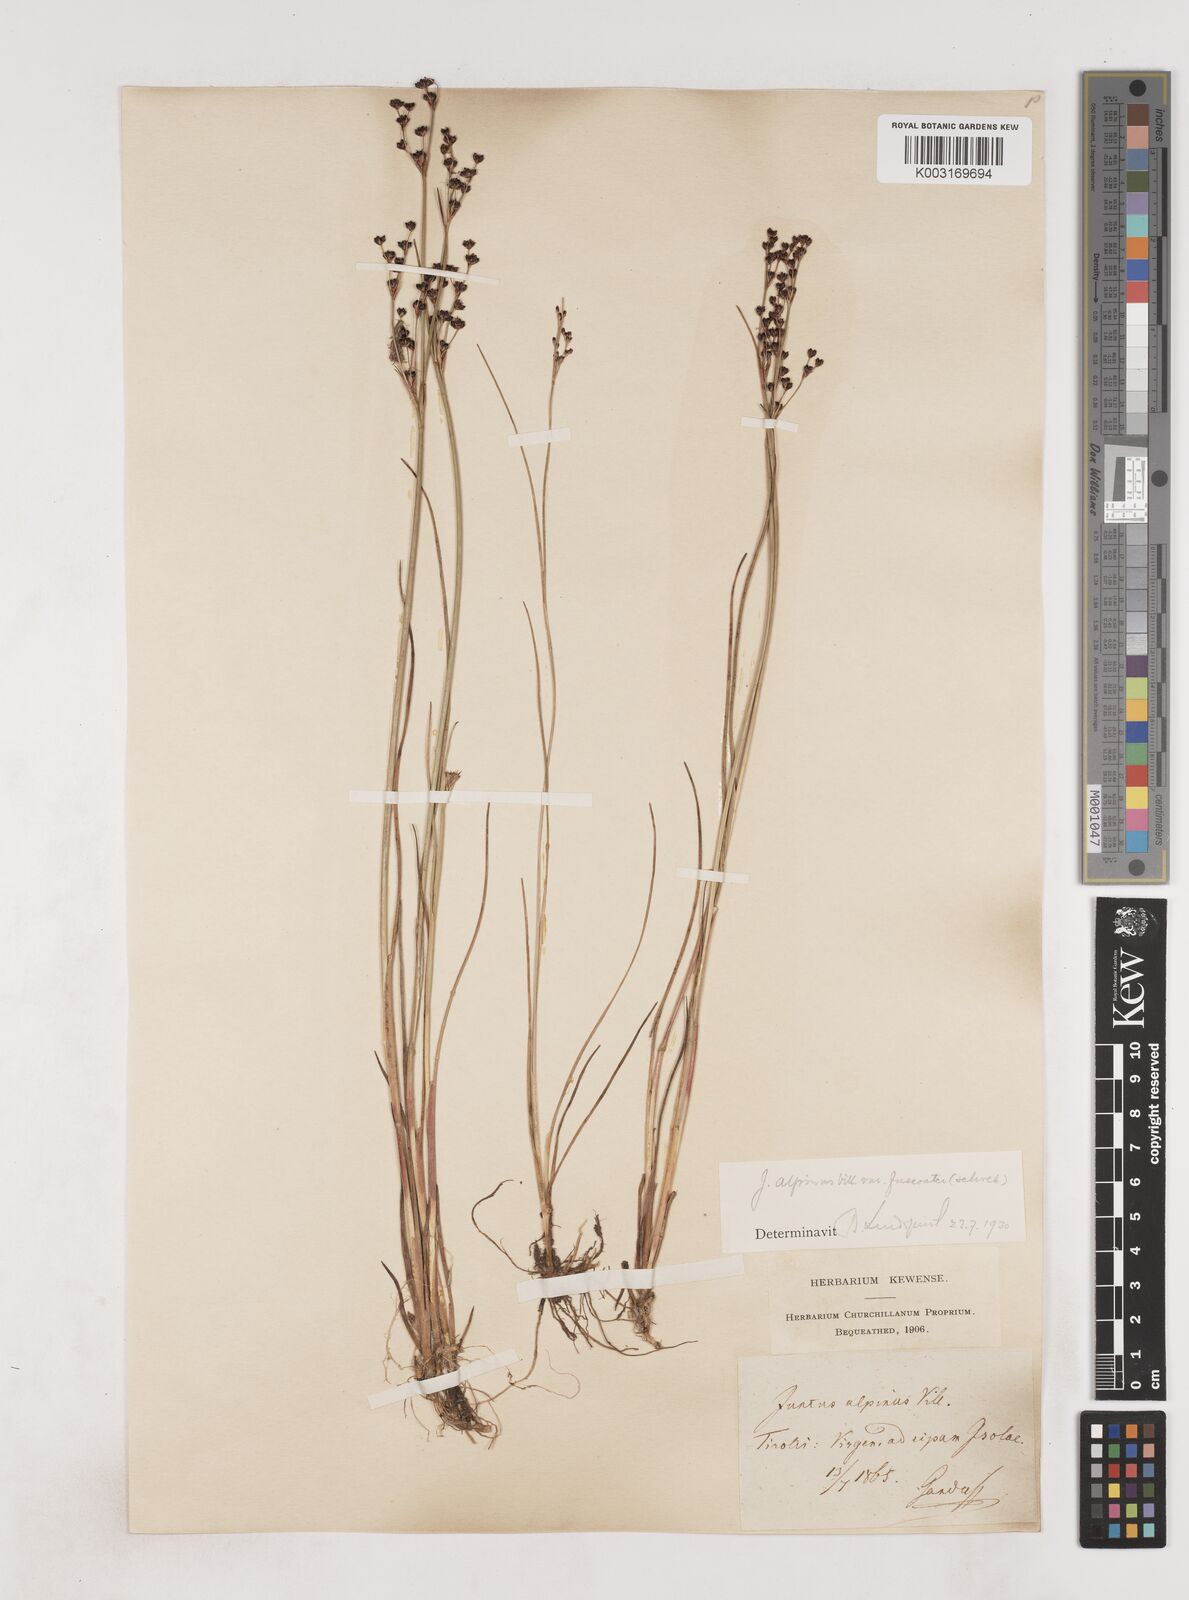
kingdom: Plantae
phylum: Tracheophyta
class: Liliopsida
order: Poales
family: Juncaceae
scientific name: Juncaceae
